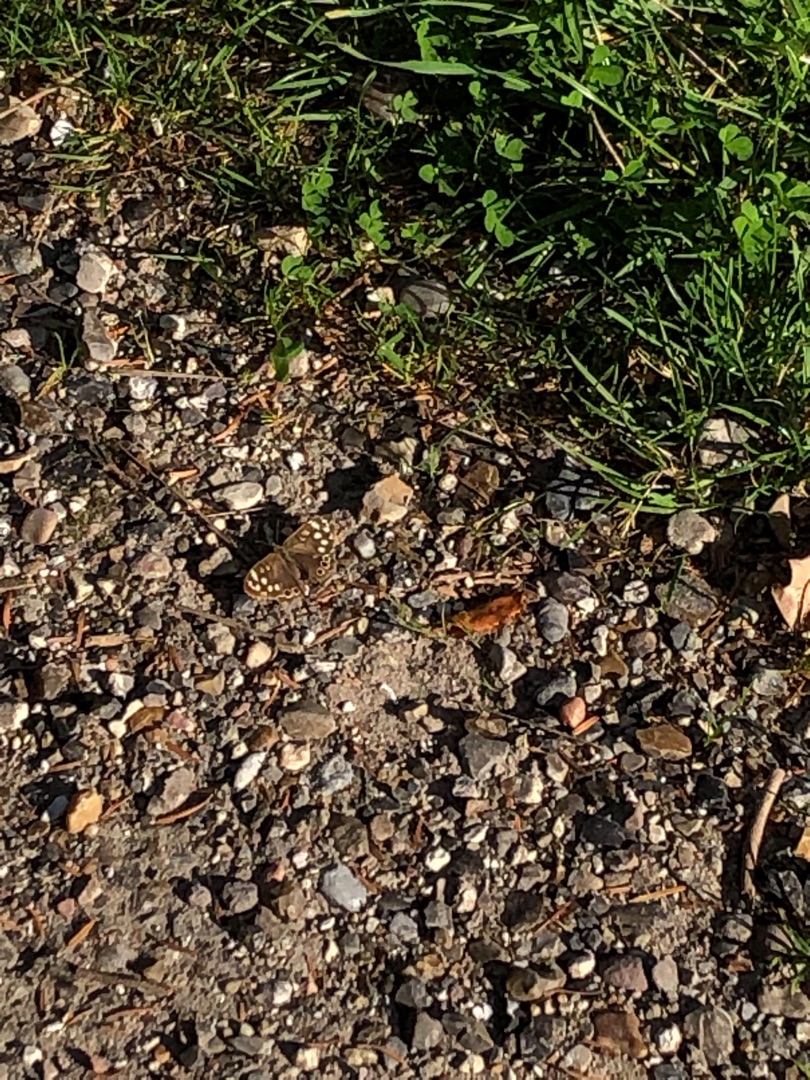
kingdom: Animalia
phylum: Arthropoda
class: Insecta
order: Lepidoptera
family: Nymphalidae
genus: Pararge
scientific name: Pararge aegeria
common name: Skovrandøje
